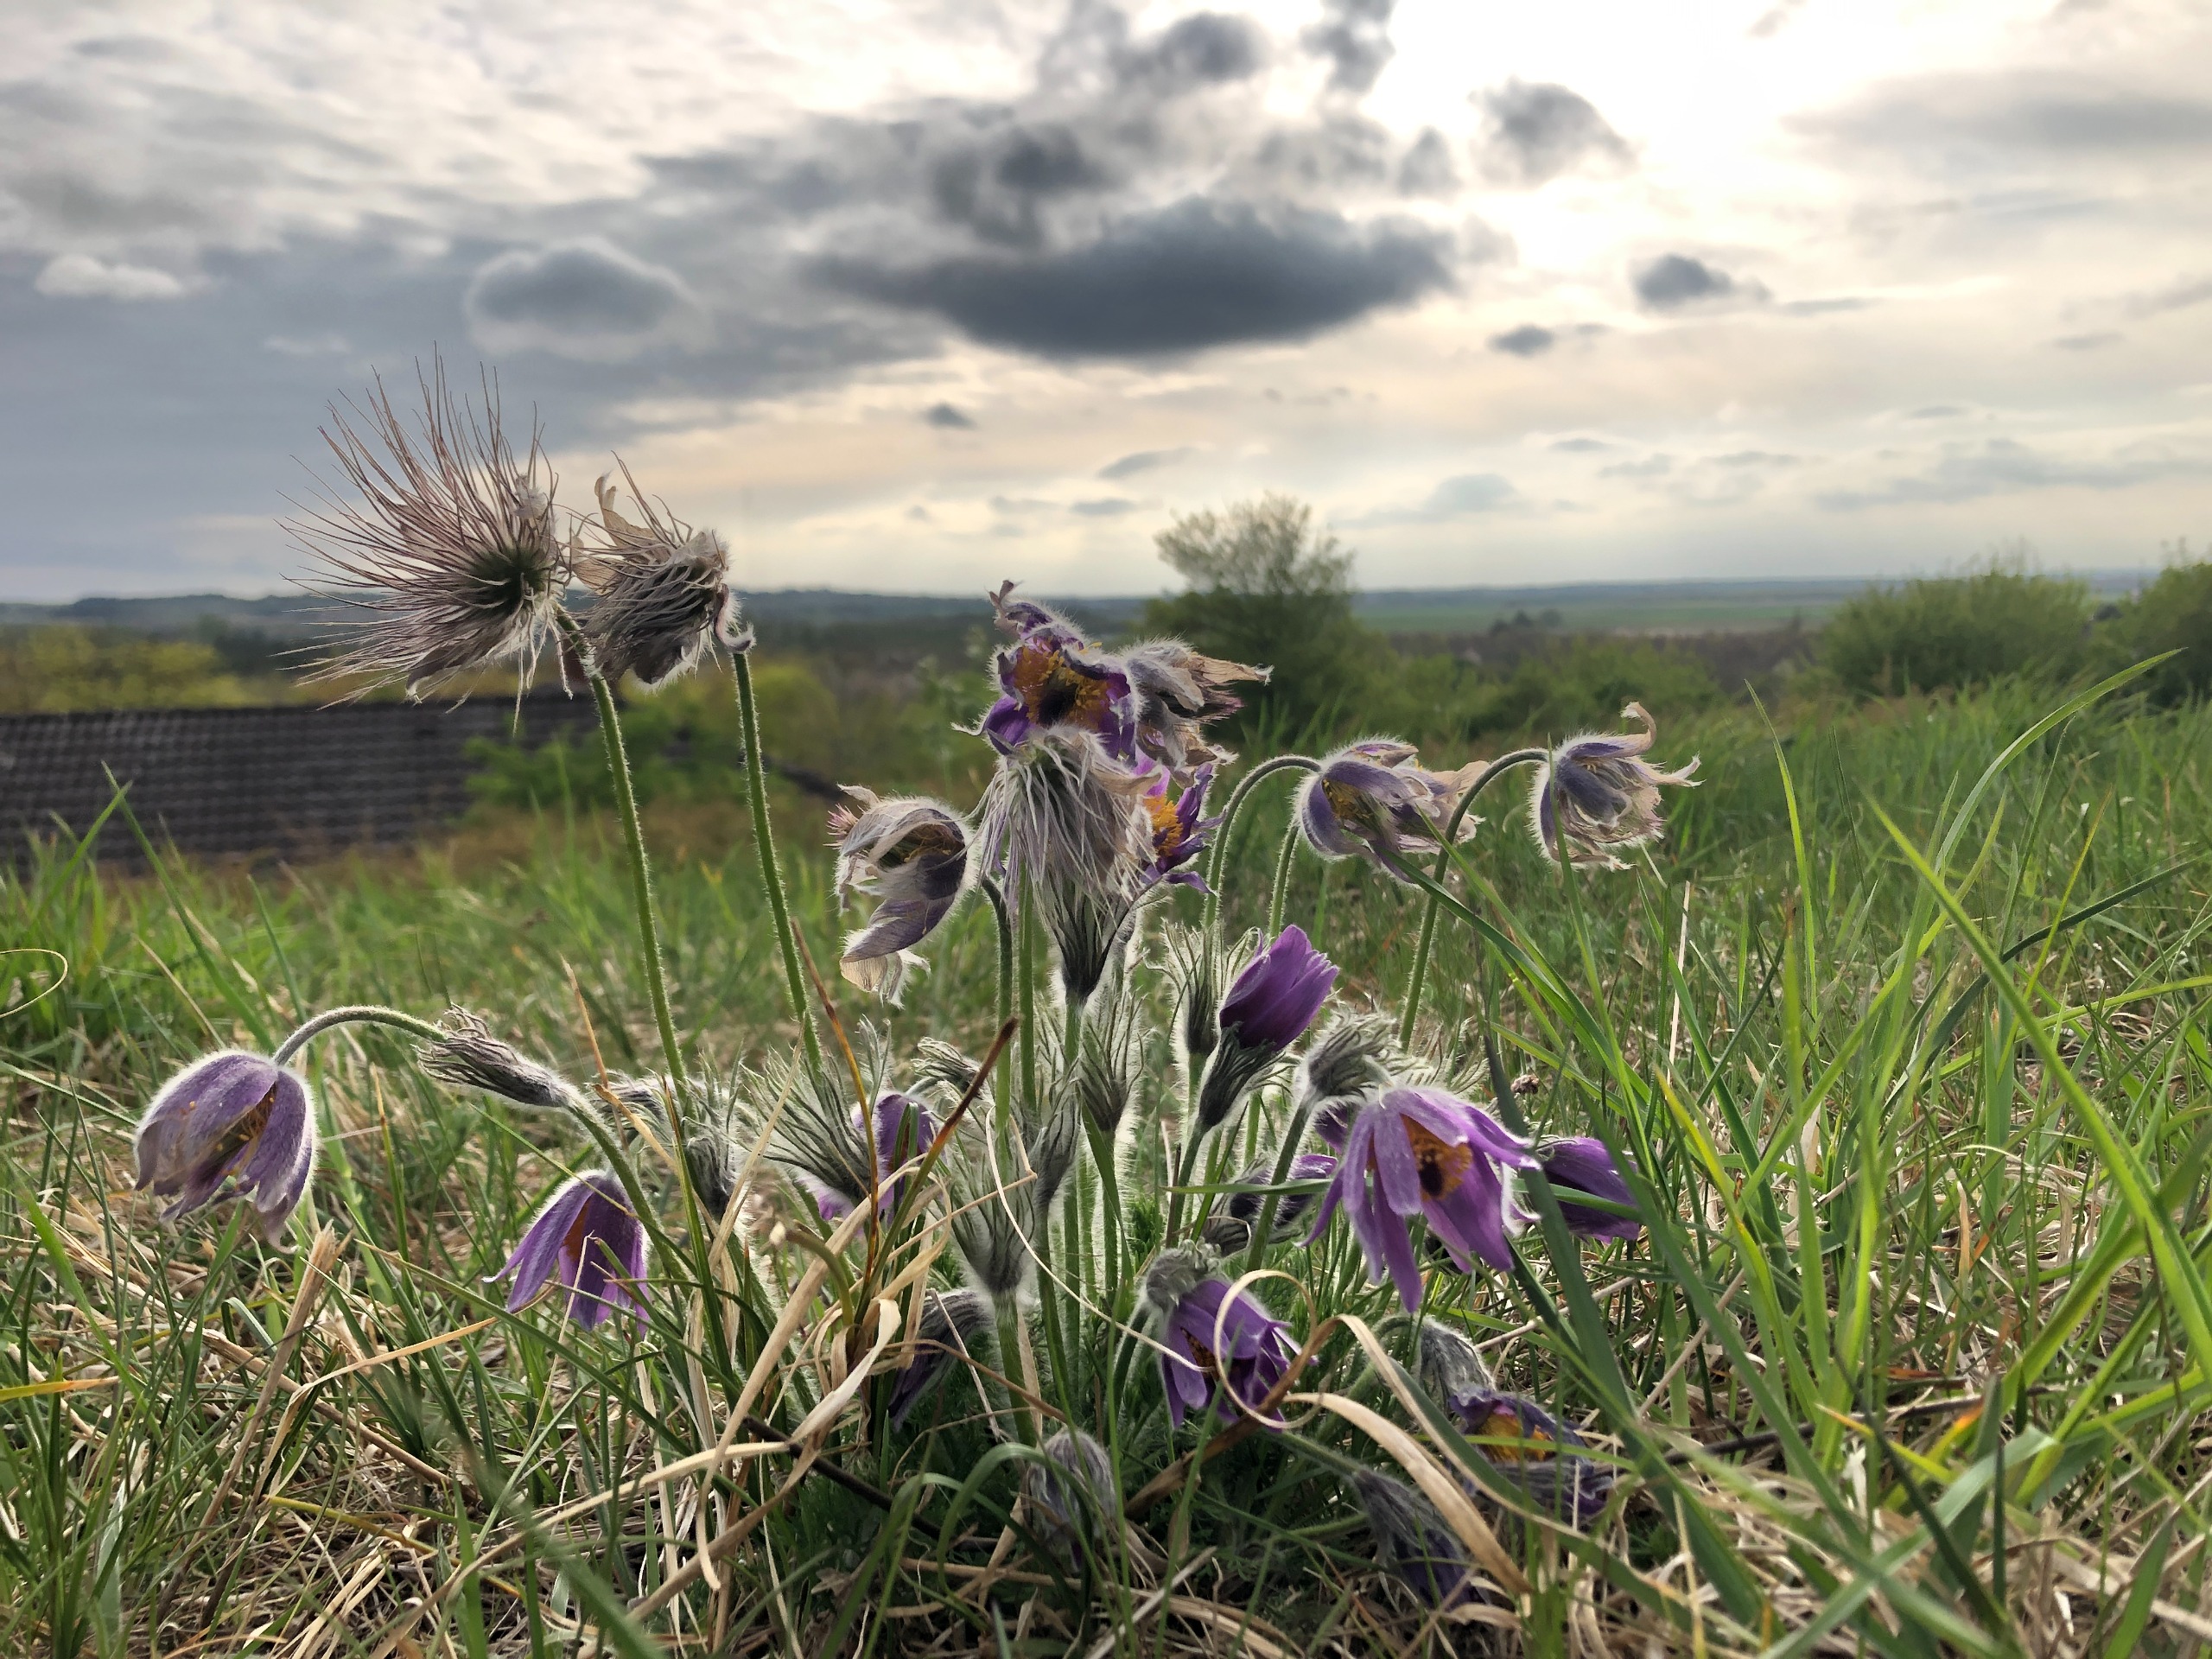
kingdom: Plantae
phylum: Tracheophyta
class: Magnoliopsida
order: Ranunculales
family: Ranunculaceae
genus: Pulsatilla
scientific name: Pulsatilla vulgaris
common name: Opret kobjælde
